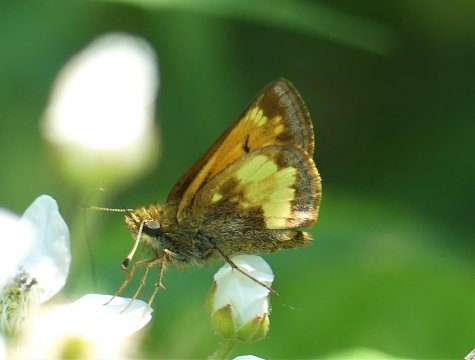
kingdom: Animalia
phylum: Arthropoda
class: Insecta
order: Lepidoptera
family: Hesperiidae
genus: Lon
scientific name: Lon hobomok
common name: Hobomok Skipper
